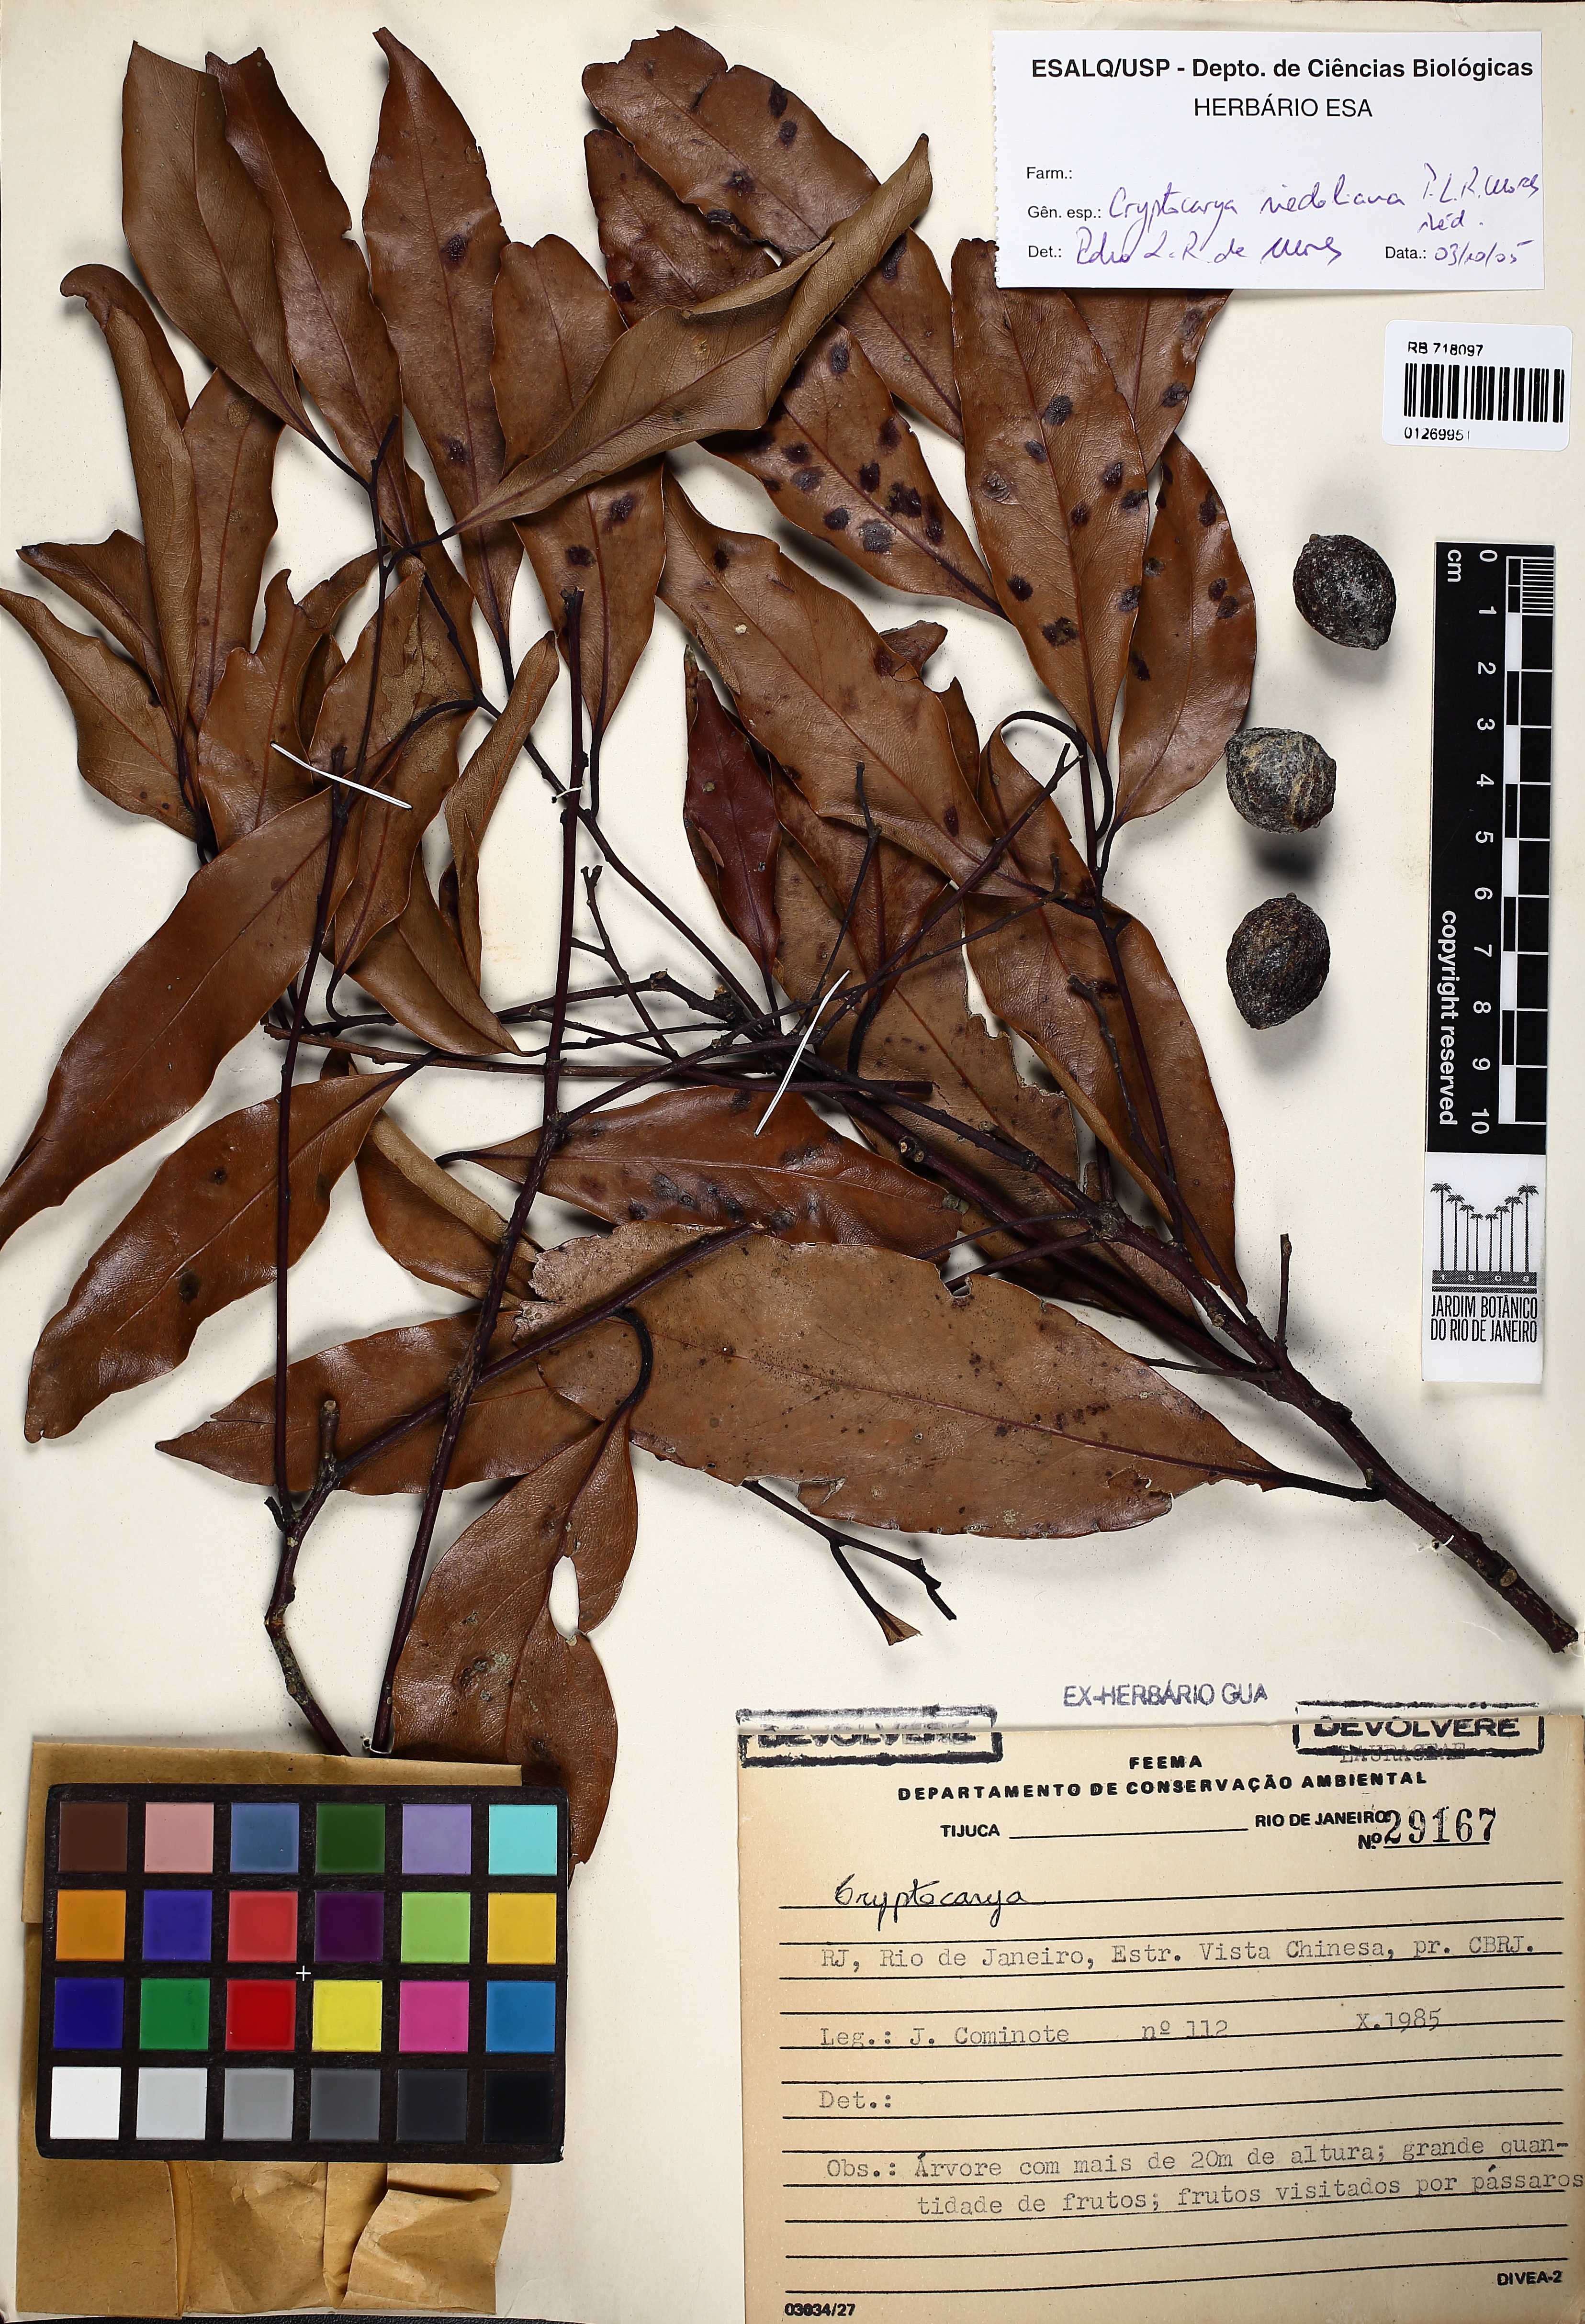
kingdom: Plantae
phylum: Tracheophyta
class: Magnoliopsida
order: Laurales
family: Lauraceae
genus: Cryptocarya
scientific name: Cryptocarya riedeliana
